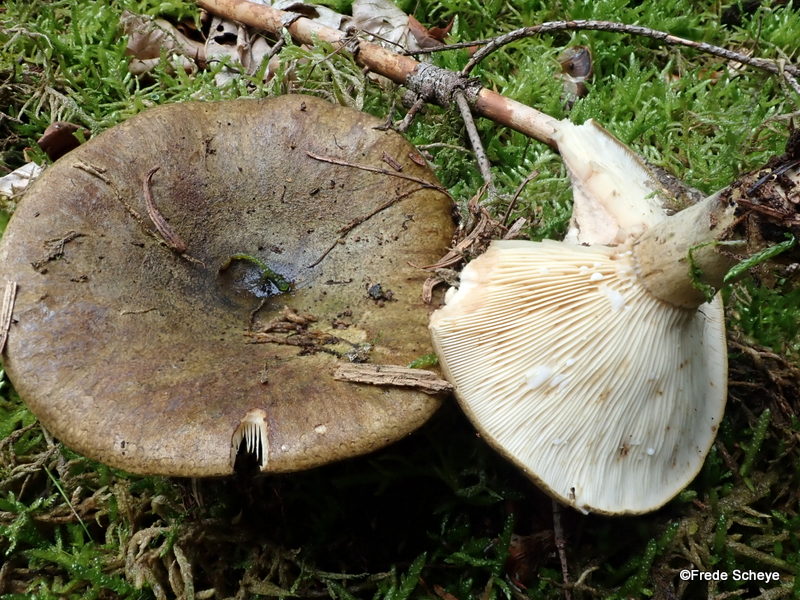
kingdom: Fungi
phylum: Basidiomycota
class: Agaricomycetes
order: Russulales
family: Russulaceae
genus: Lactarius
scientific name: Lactarius necator
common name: manddraber-mælkehat
